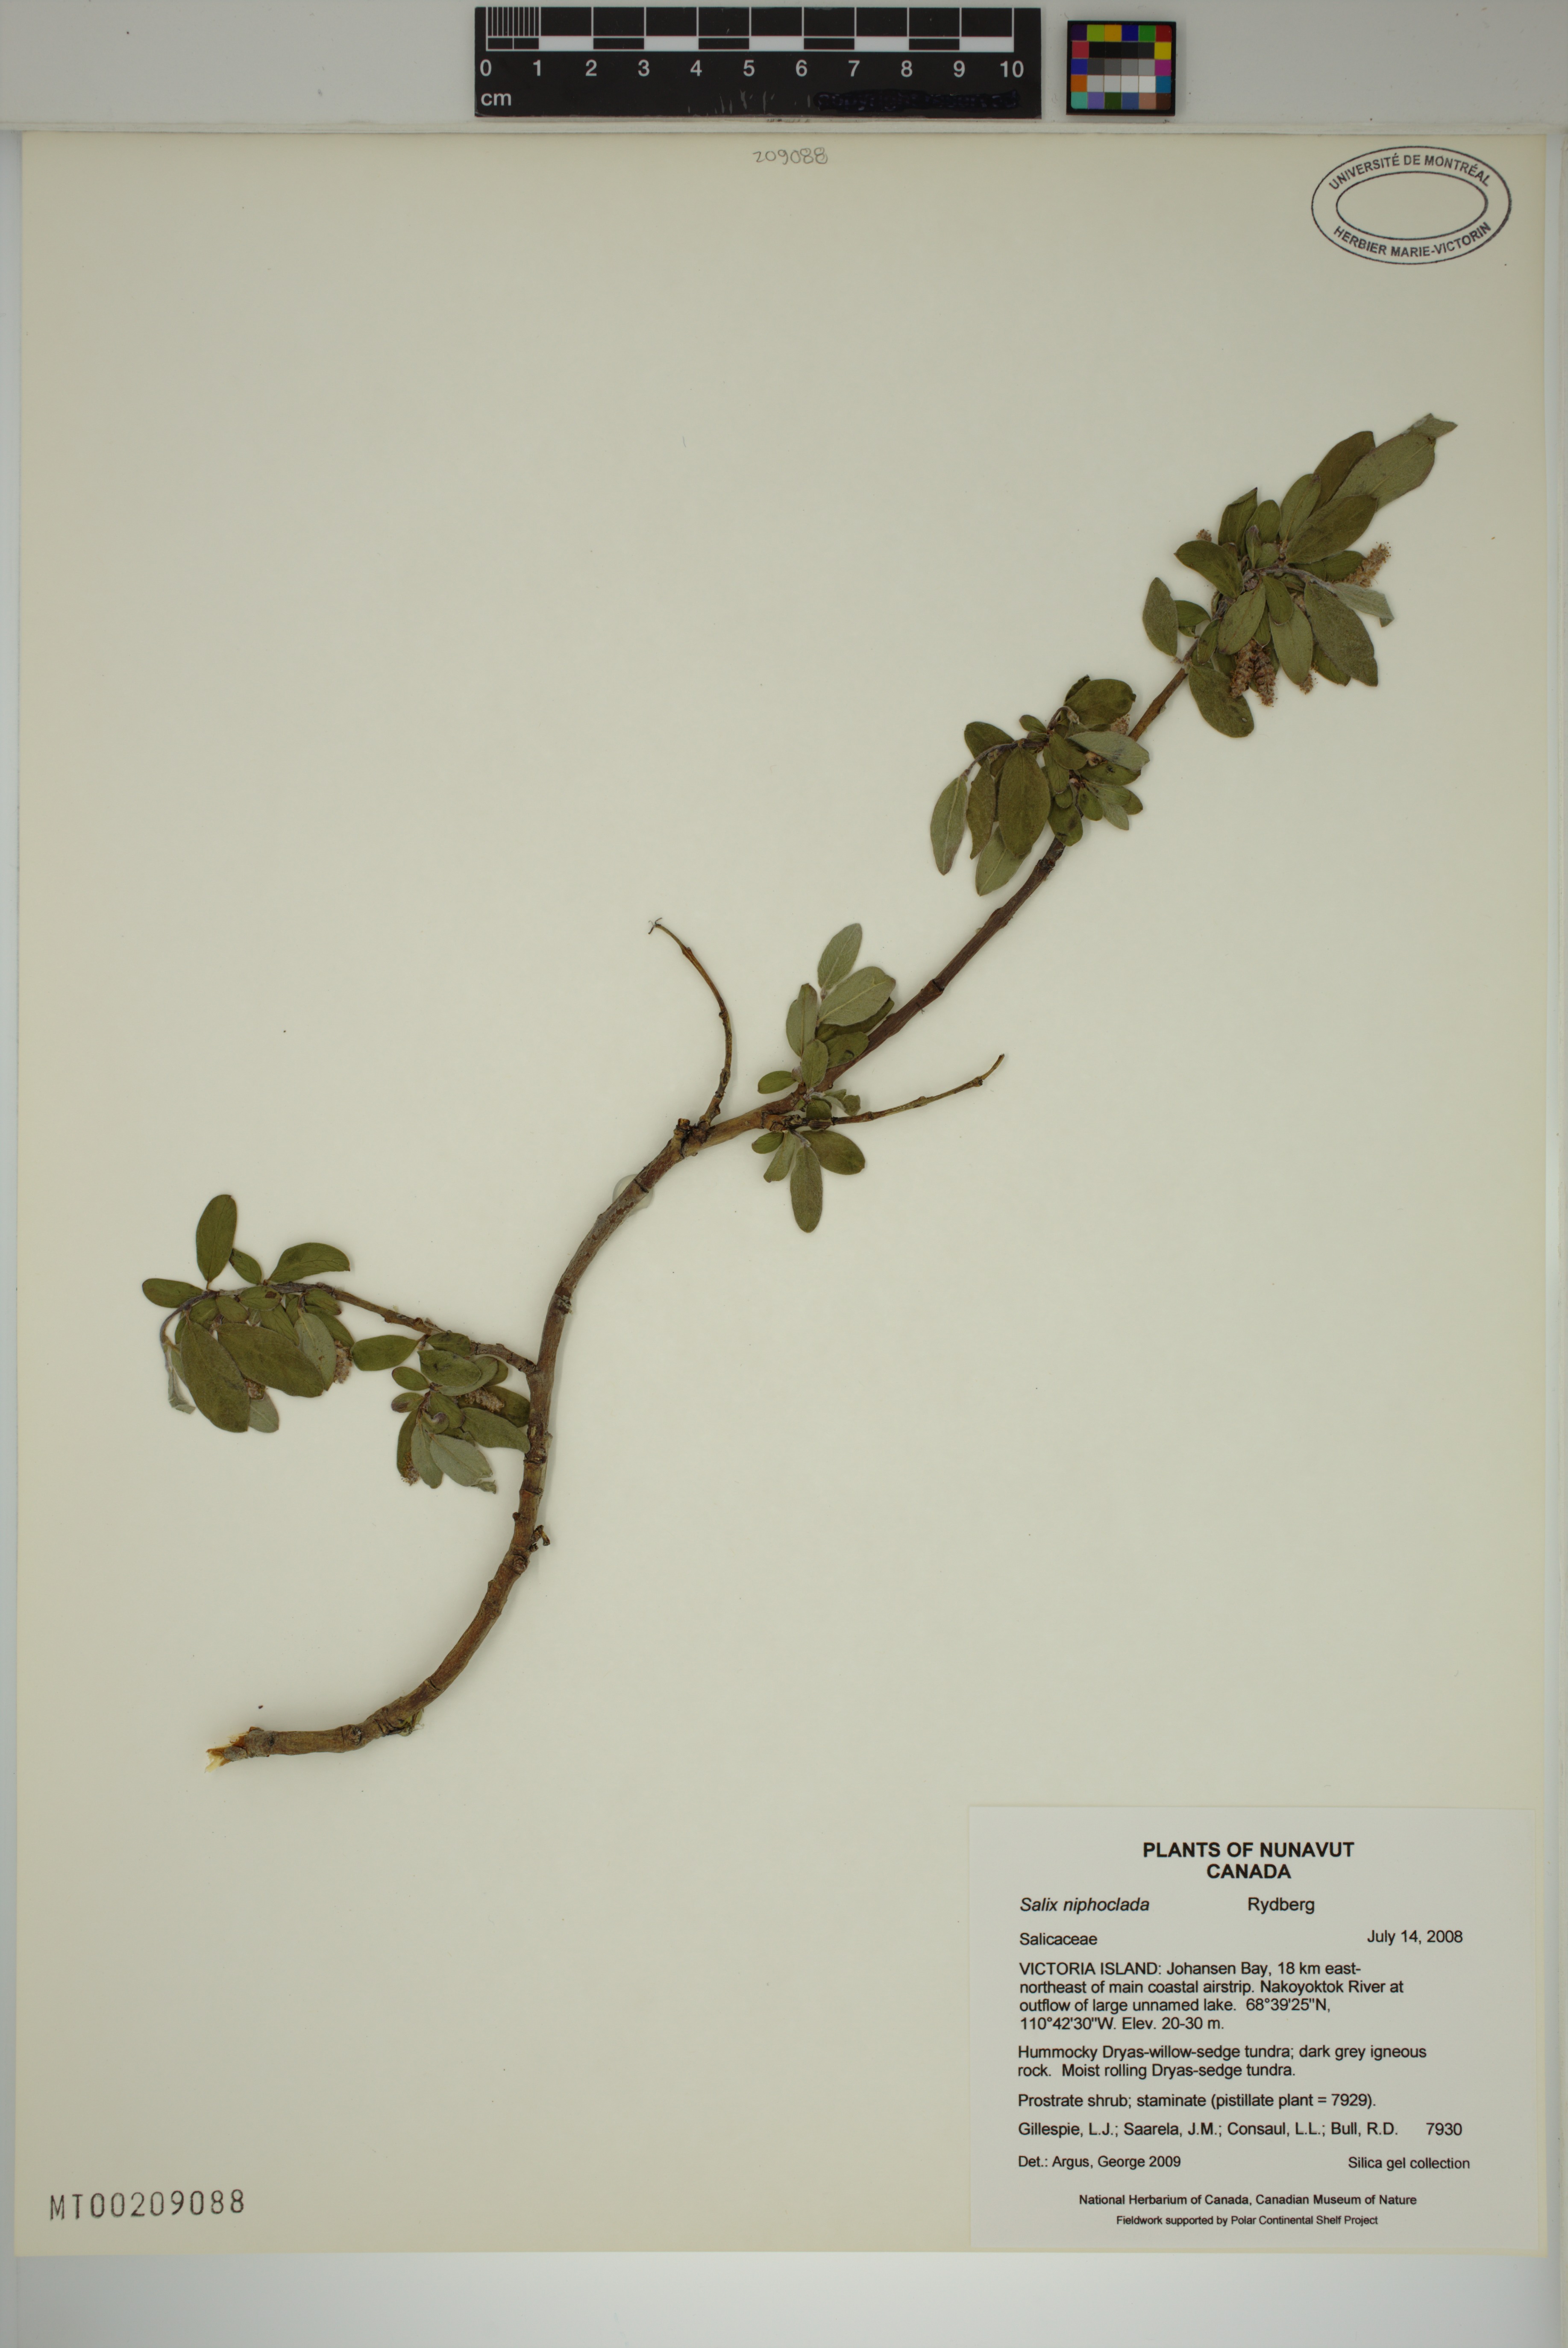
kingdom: Plantae
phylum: Tracheophyta
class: Magnoliopsida
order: Malpighiales
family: Salicaceae
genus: Salix
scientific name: Salix niphoclada
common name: Barren-ground willow
